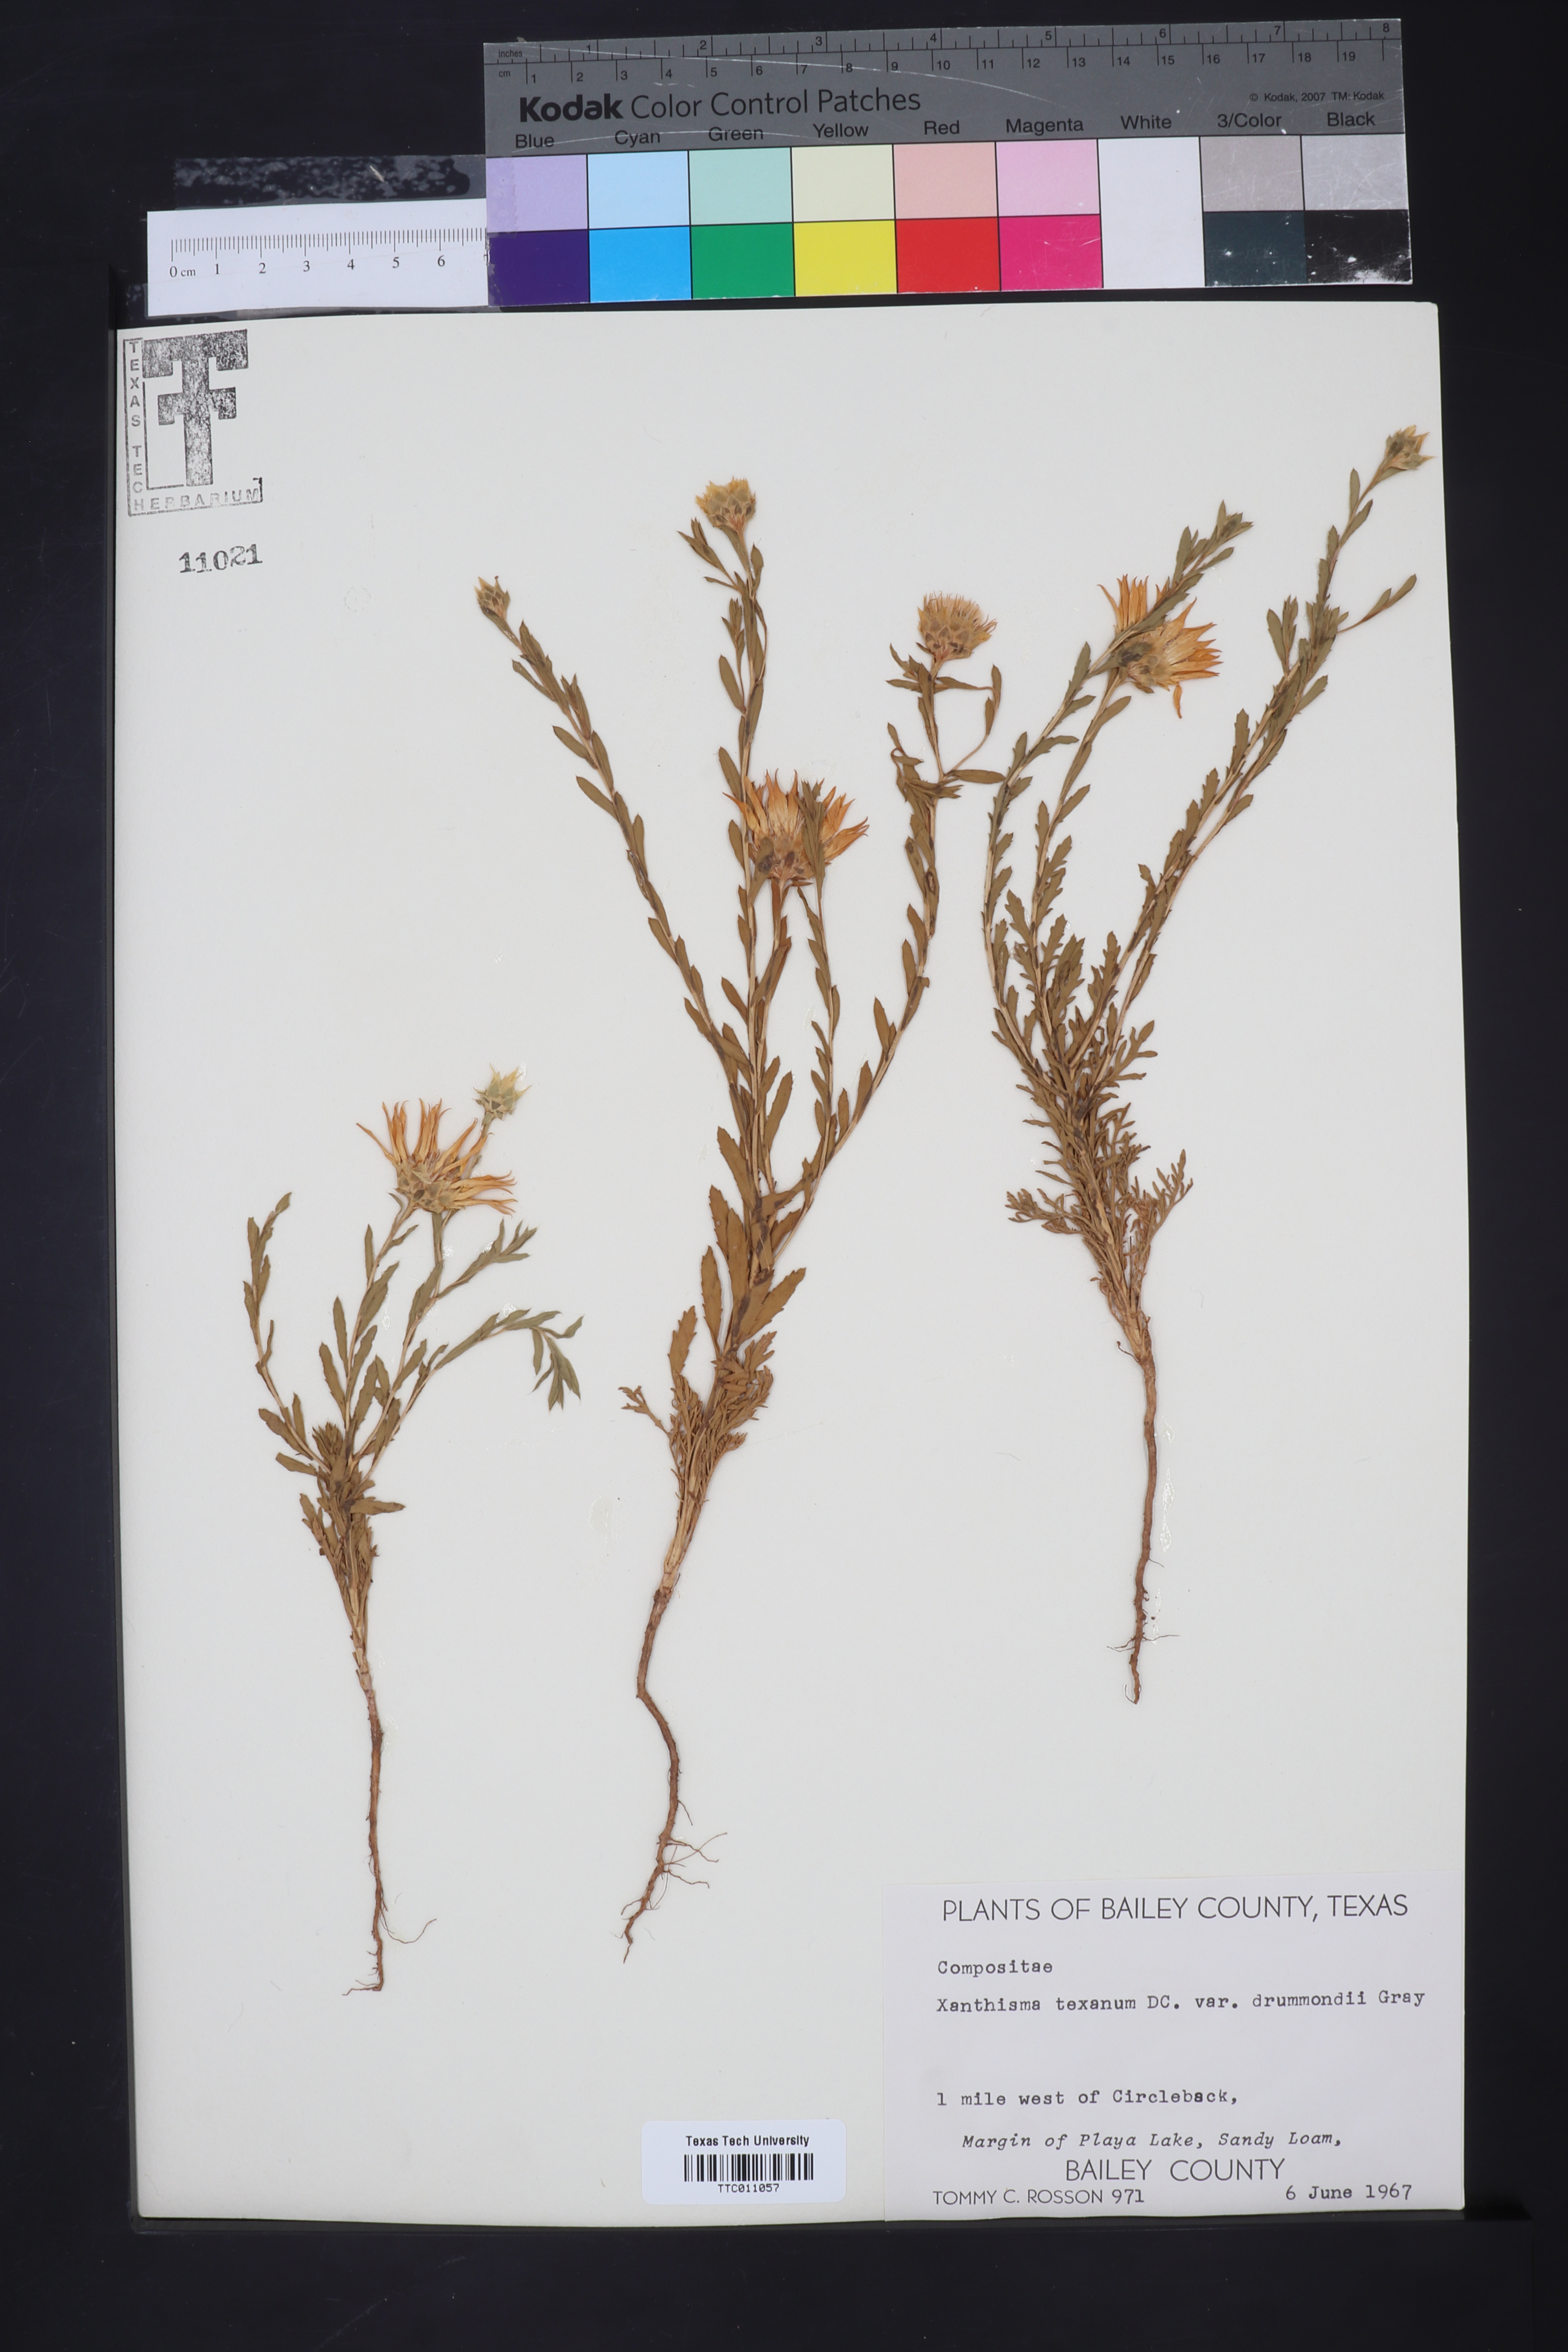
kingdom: Plantae
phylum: Tracheophyta
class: Magnoliopsida
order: Asterales
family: Asteraceae
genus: Xanthisma
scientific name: Xanthisma texanum
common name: Texas sleepy daisy
